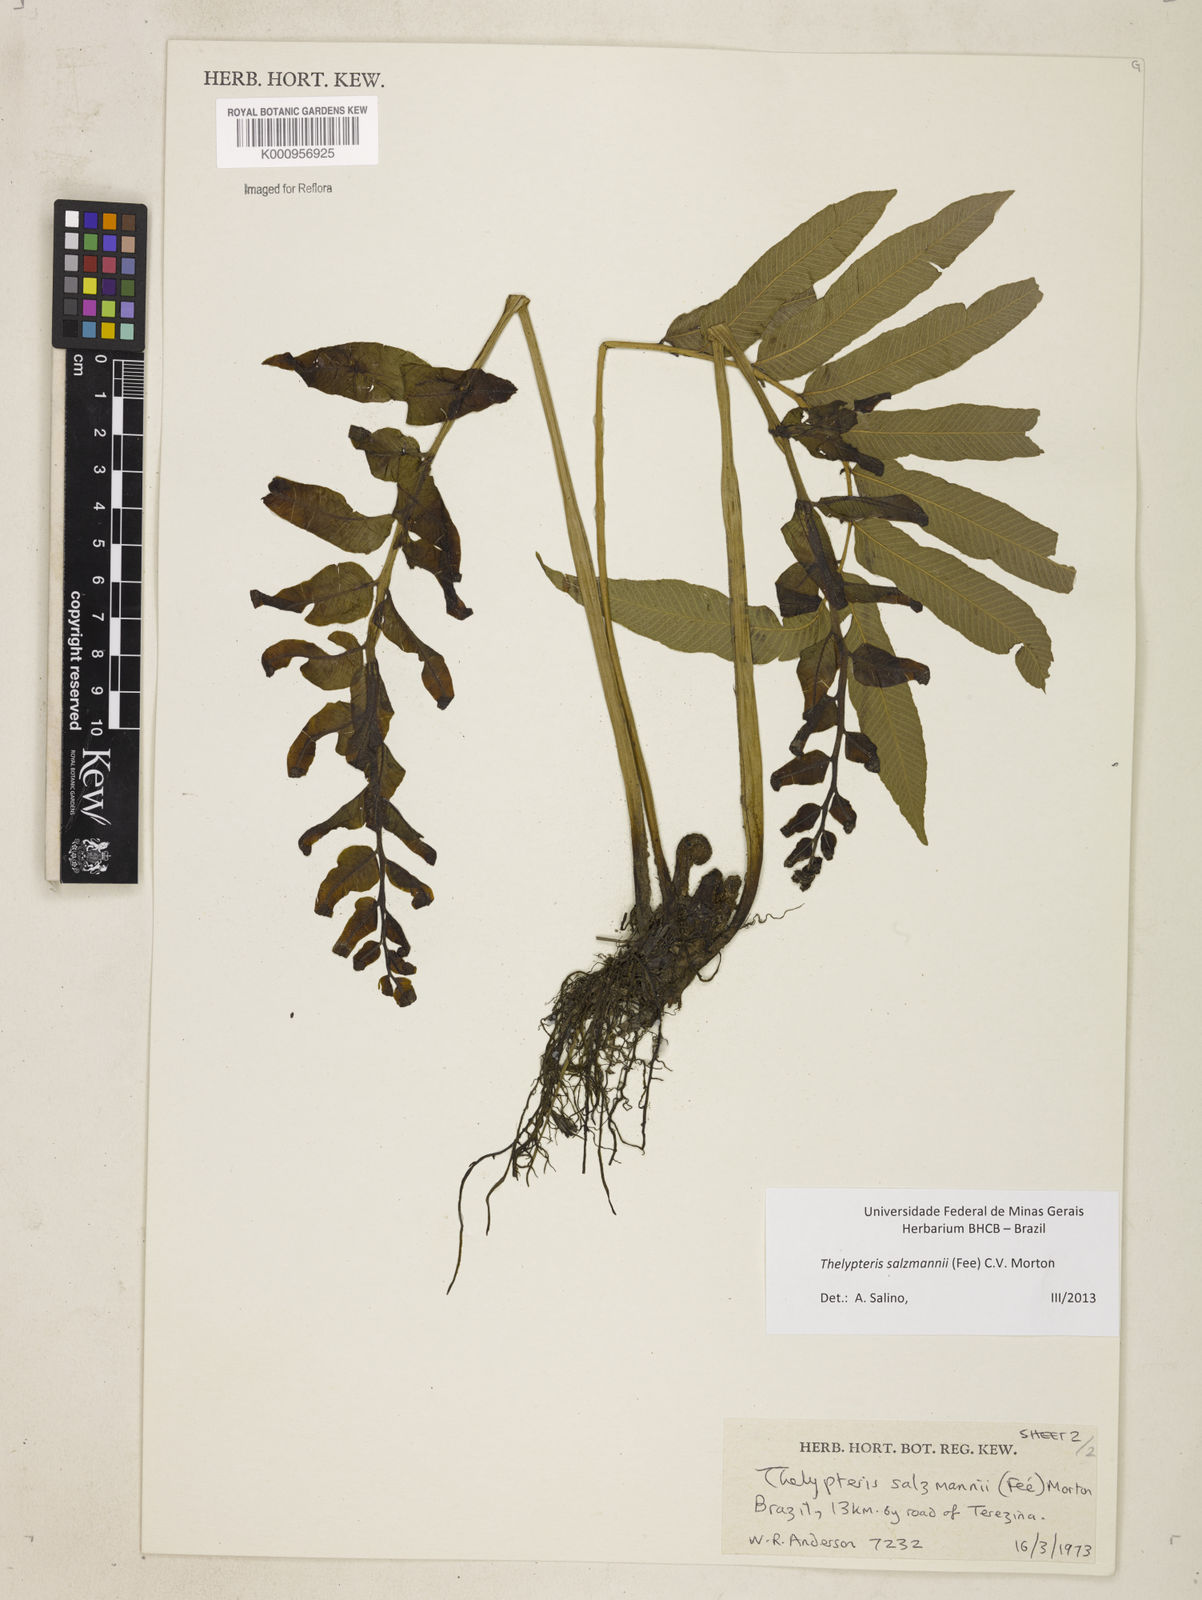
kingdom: Plantae
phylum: Tracheophyta
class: Polypodiopsida
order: Polypodiales
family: Thelypteridaceae
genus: Meniscium
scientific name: Meniscium arborescens
